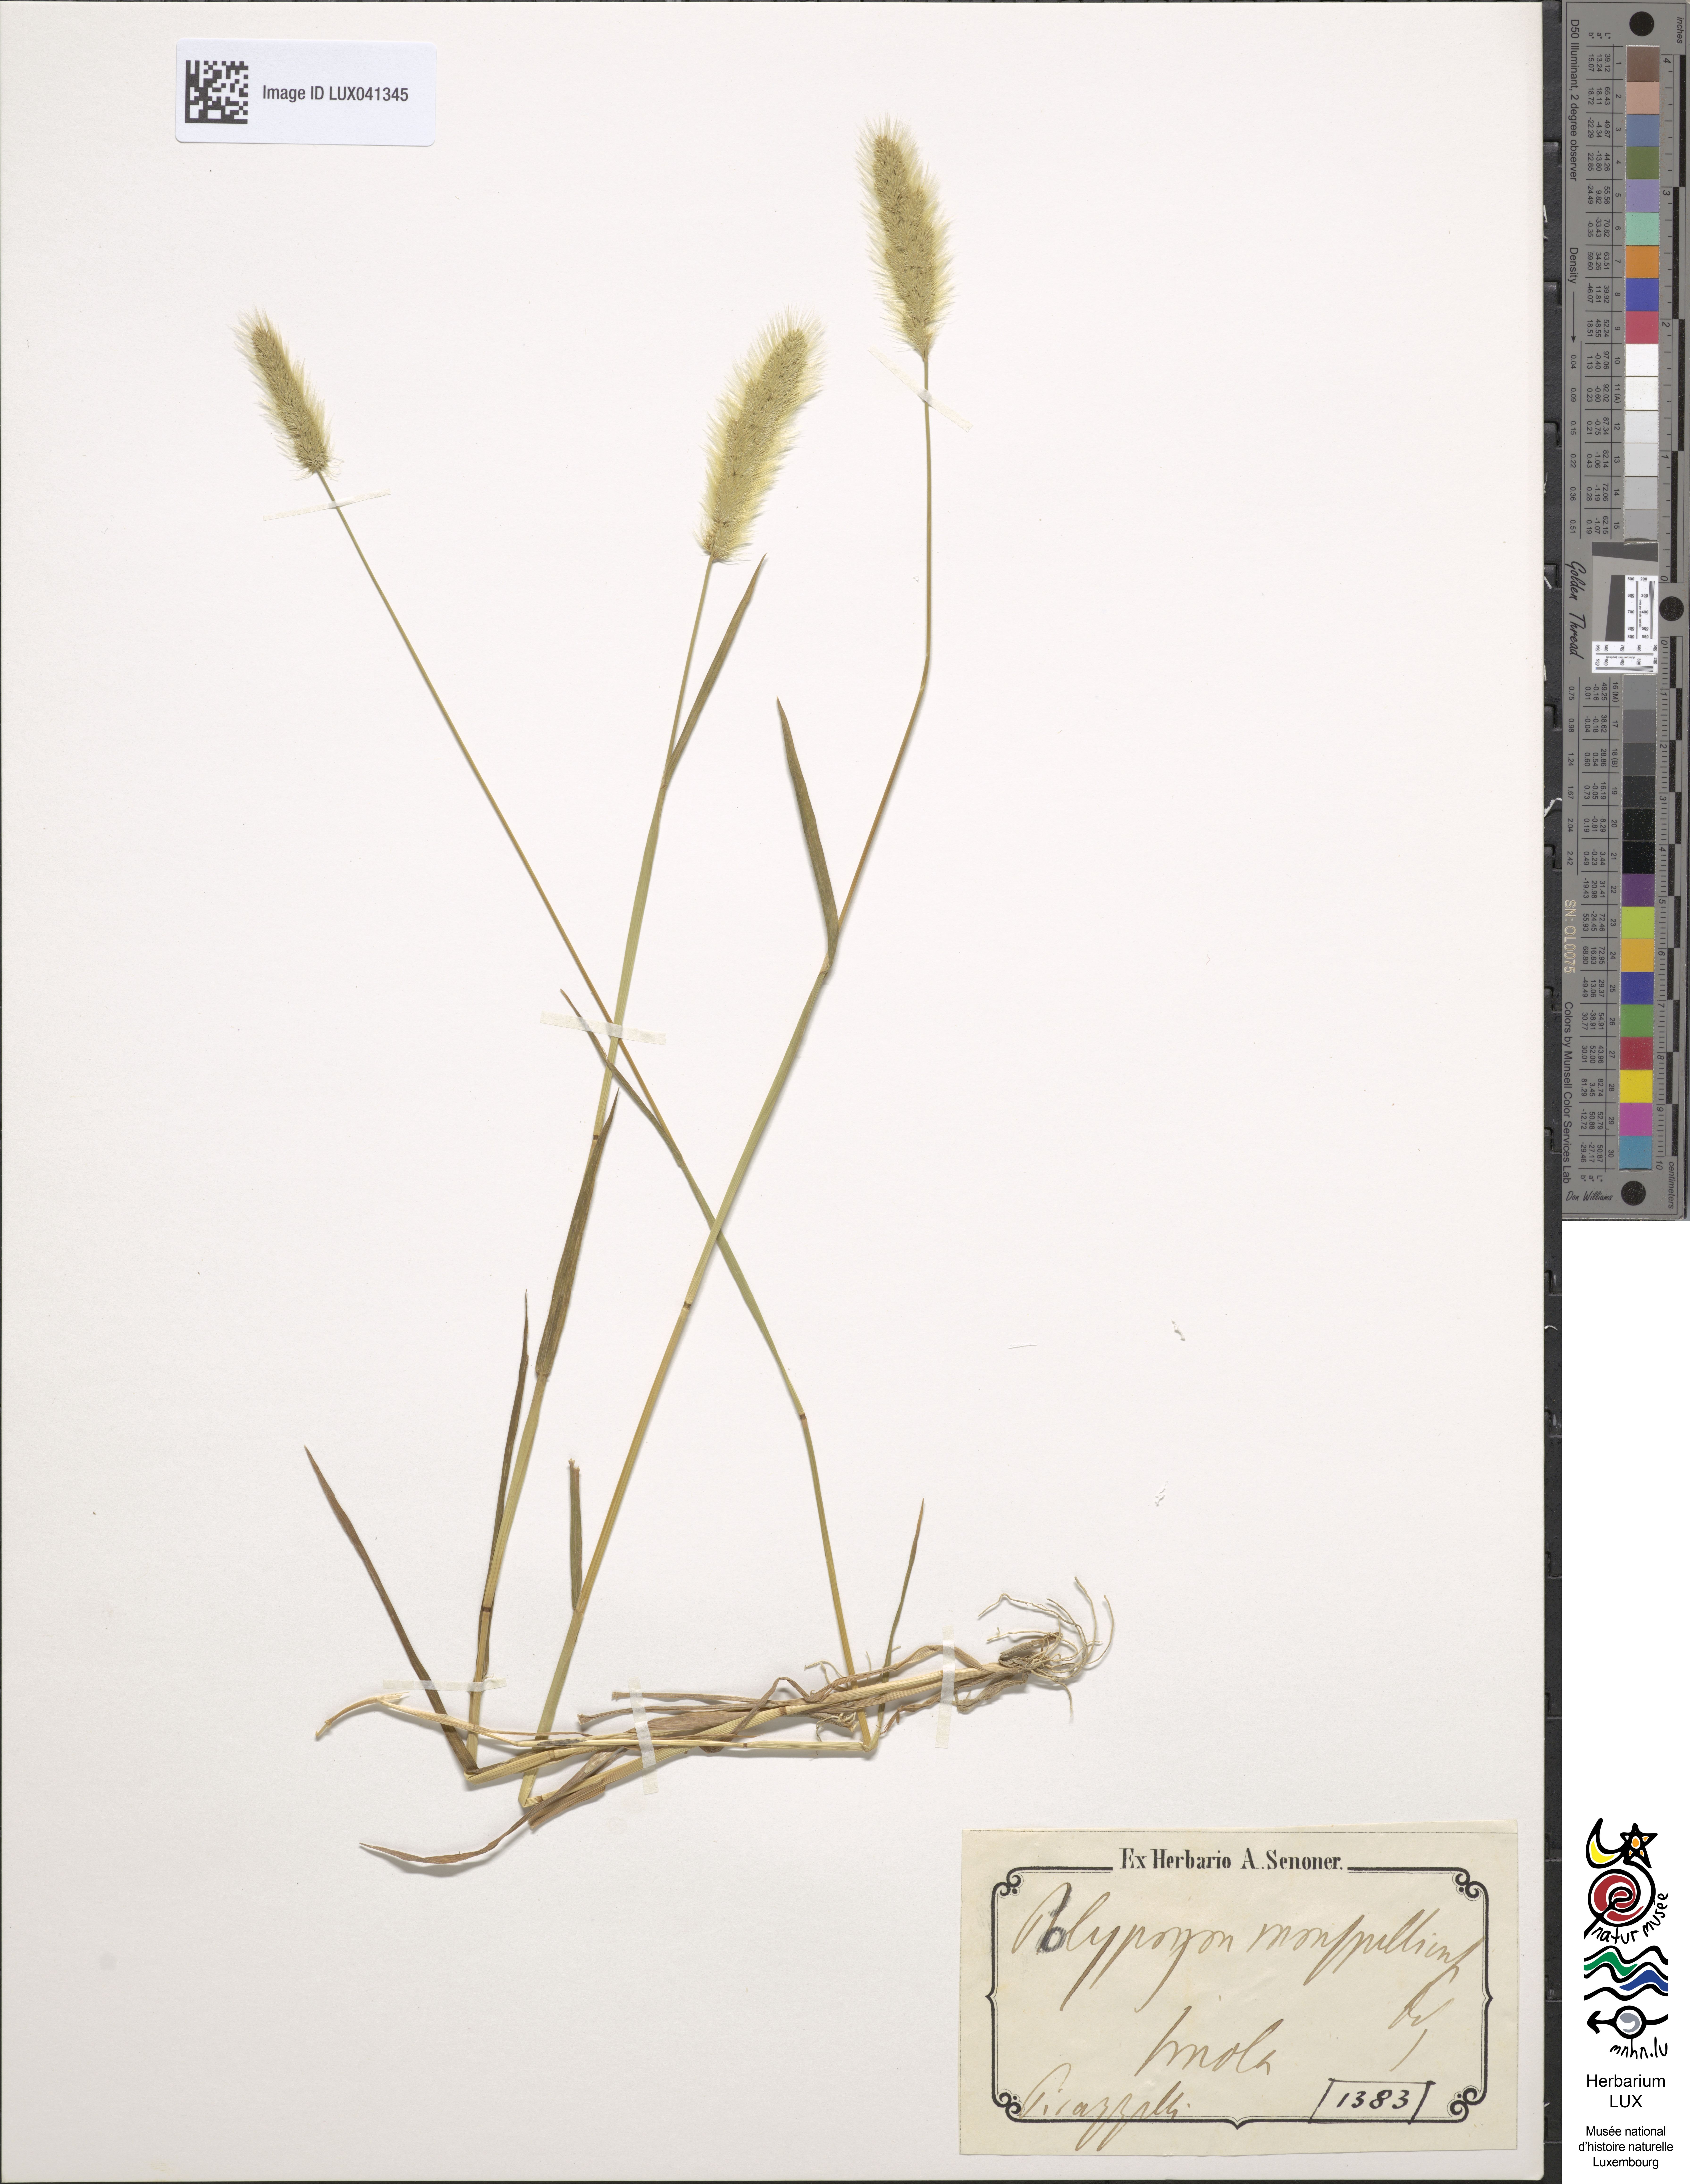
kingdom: Animalia
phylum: Arthropoda
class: Insecta
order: Lepidoptera
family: Erebidae
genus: Polypogon
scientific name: Polypogon
